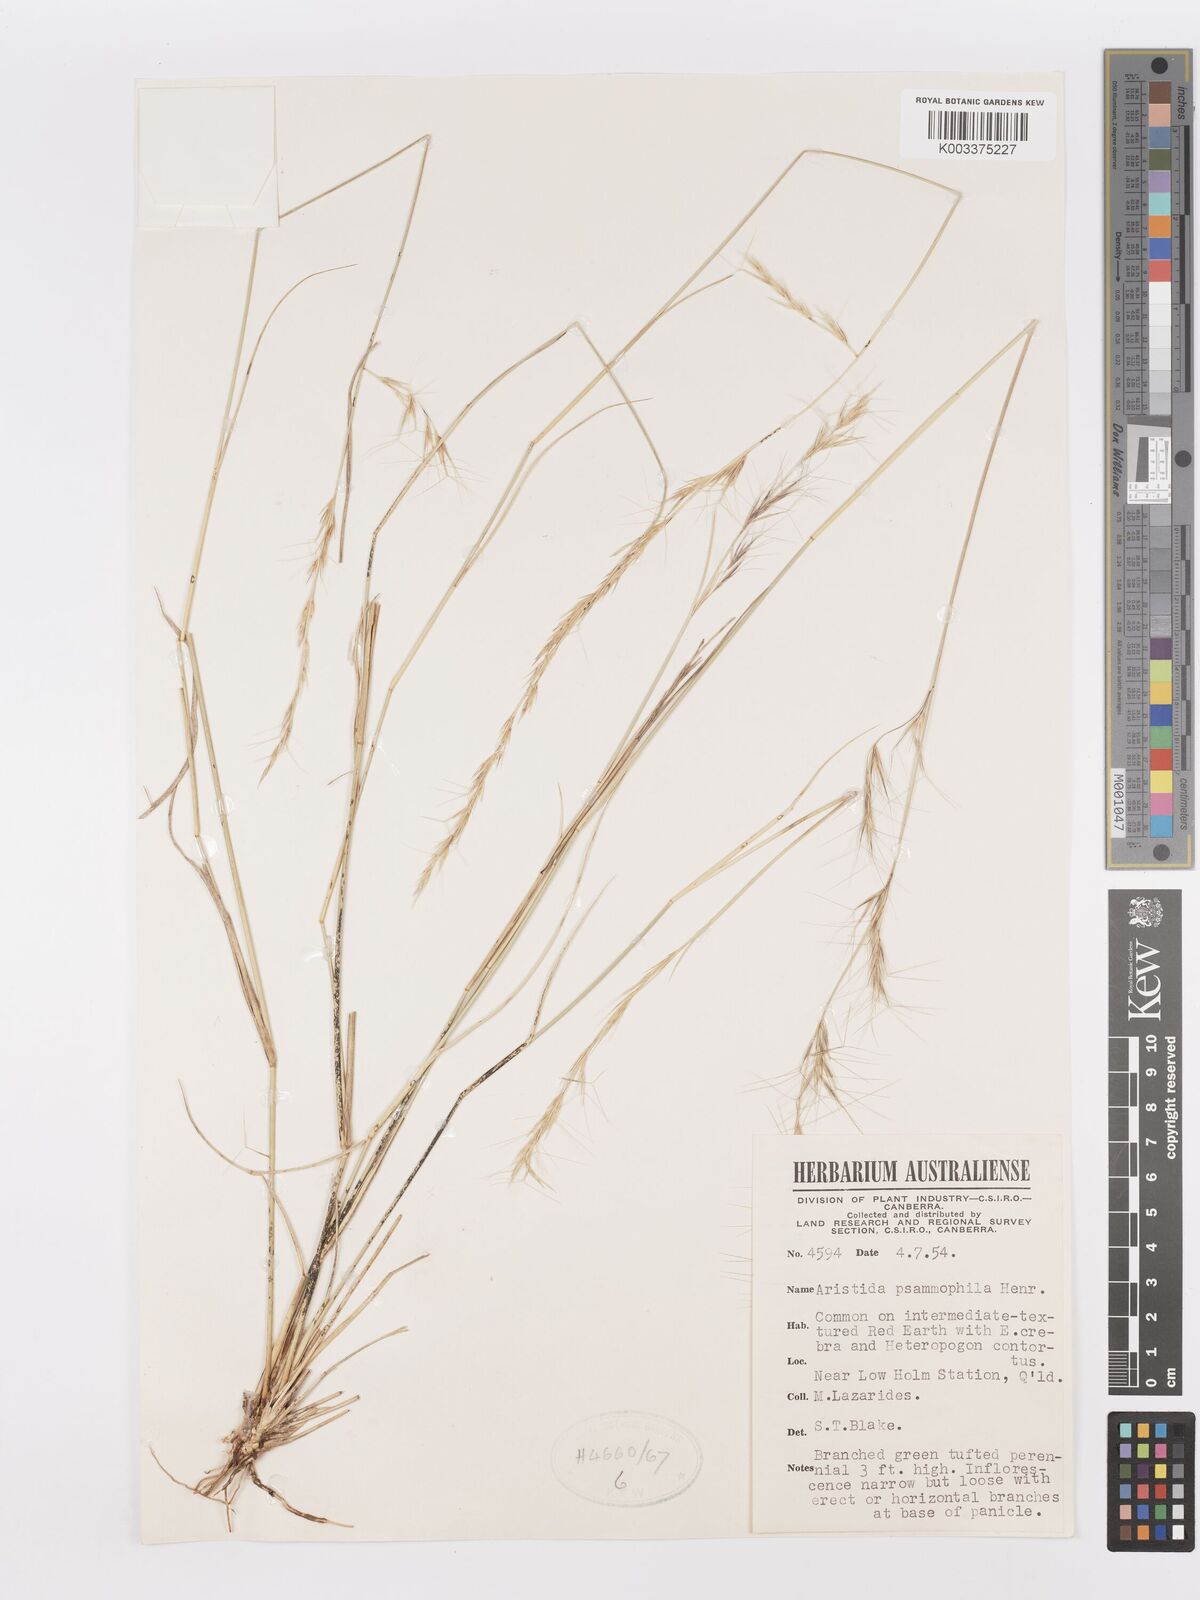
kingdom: Plantae
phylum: Tracheophyta
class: Liliopsida
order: Poales
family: Poaceae
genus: Aristida
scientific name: Aristida psammophila
